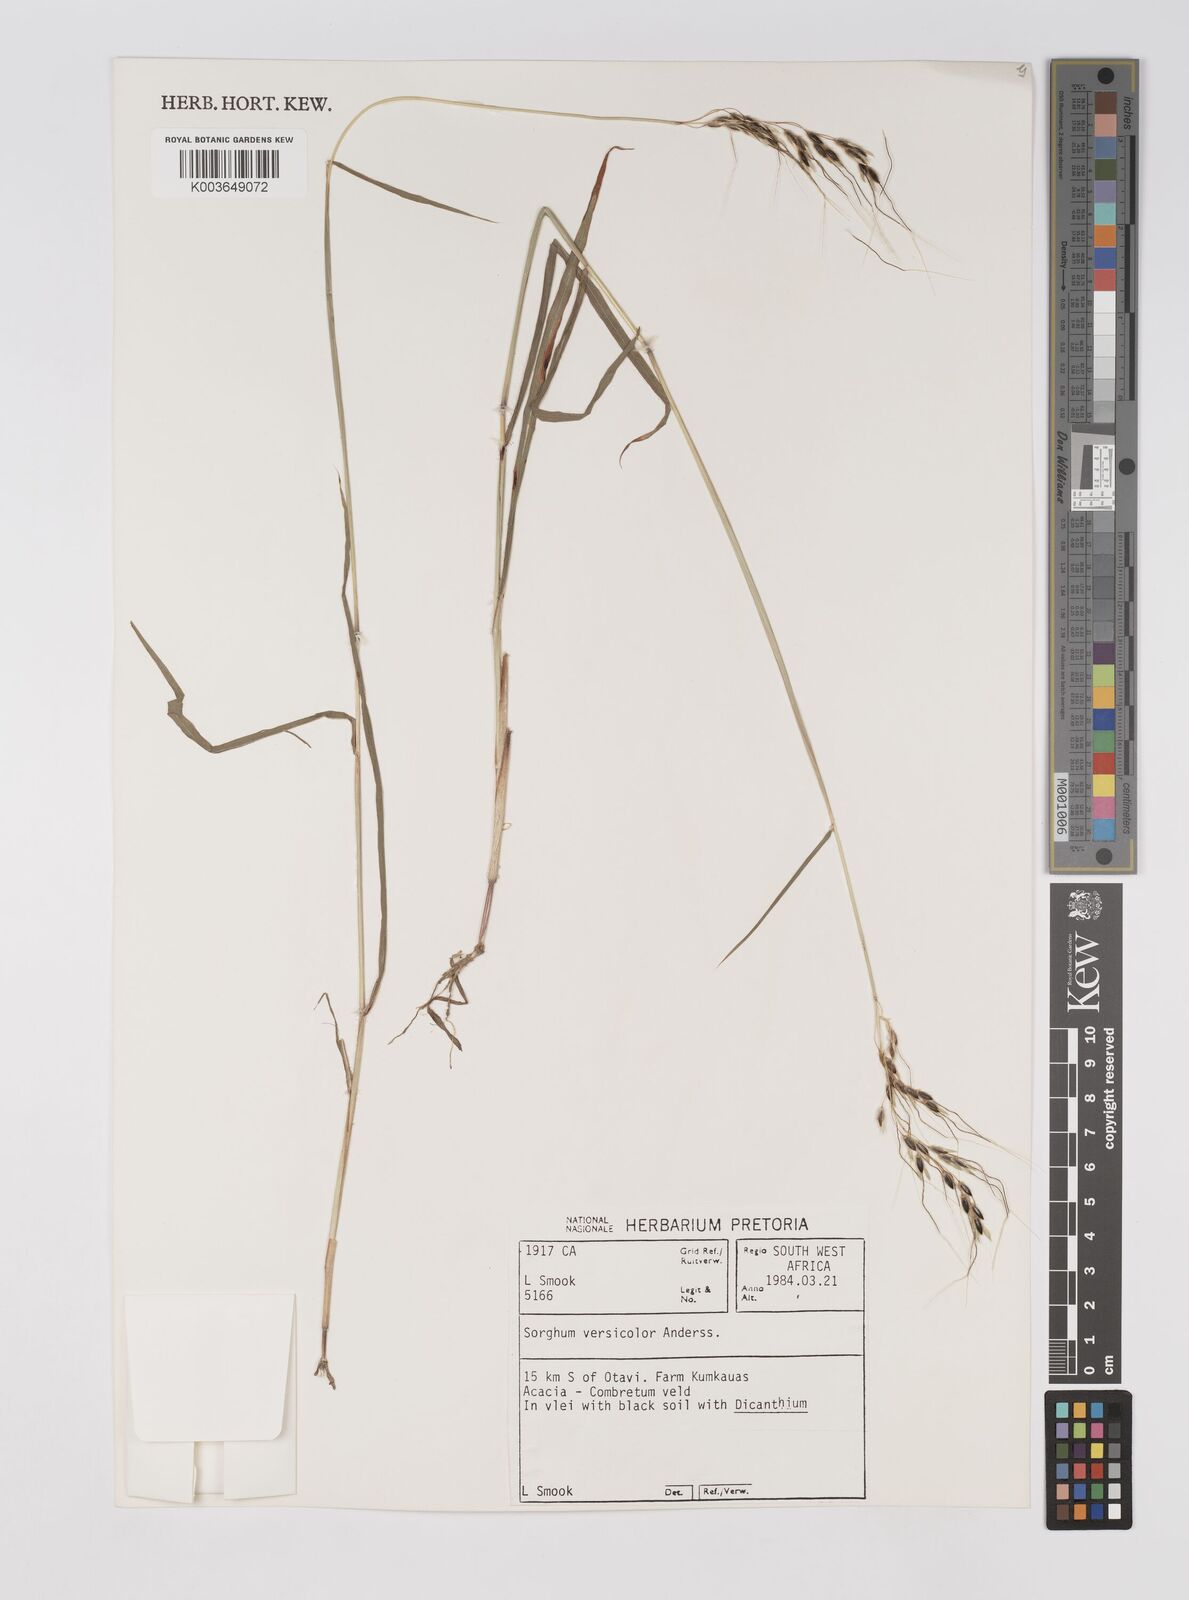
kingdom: Plantae
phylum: Tracheophyta
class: Liliopsida
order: Poales
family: Poaceae
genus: Sarga
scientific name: Sarga versicolor
